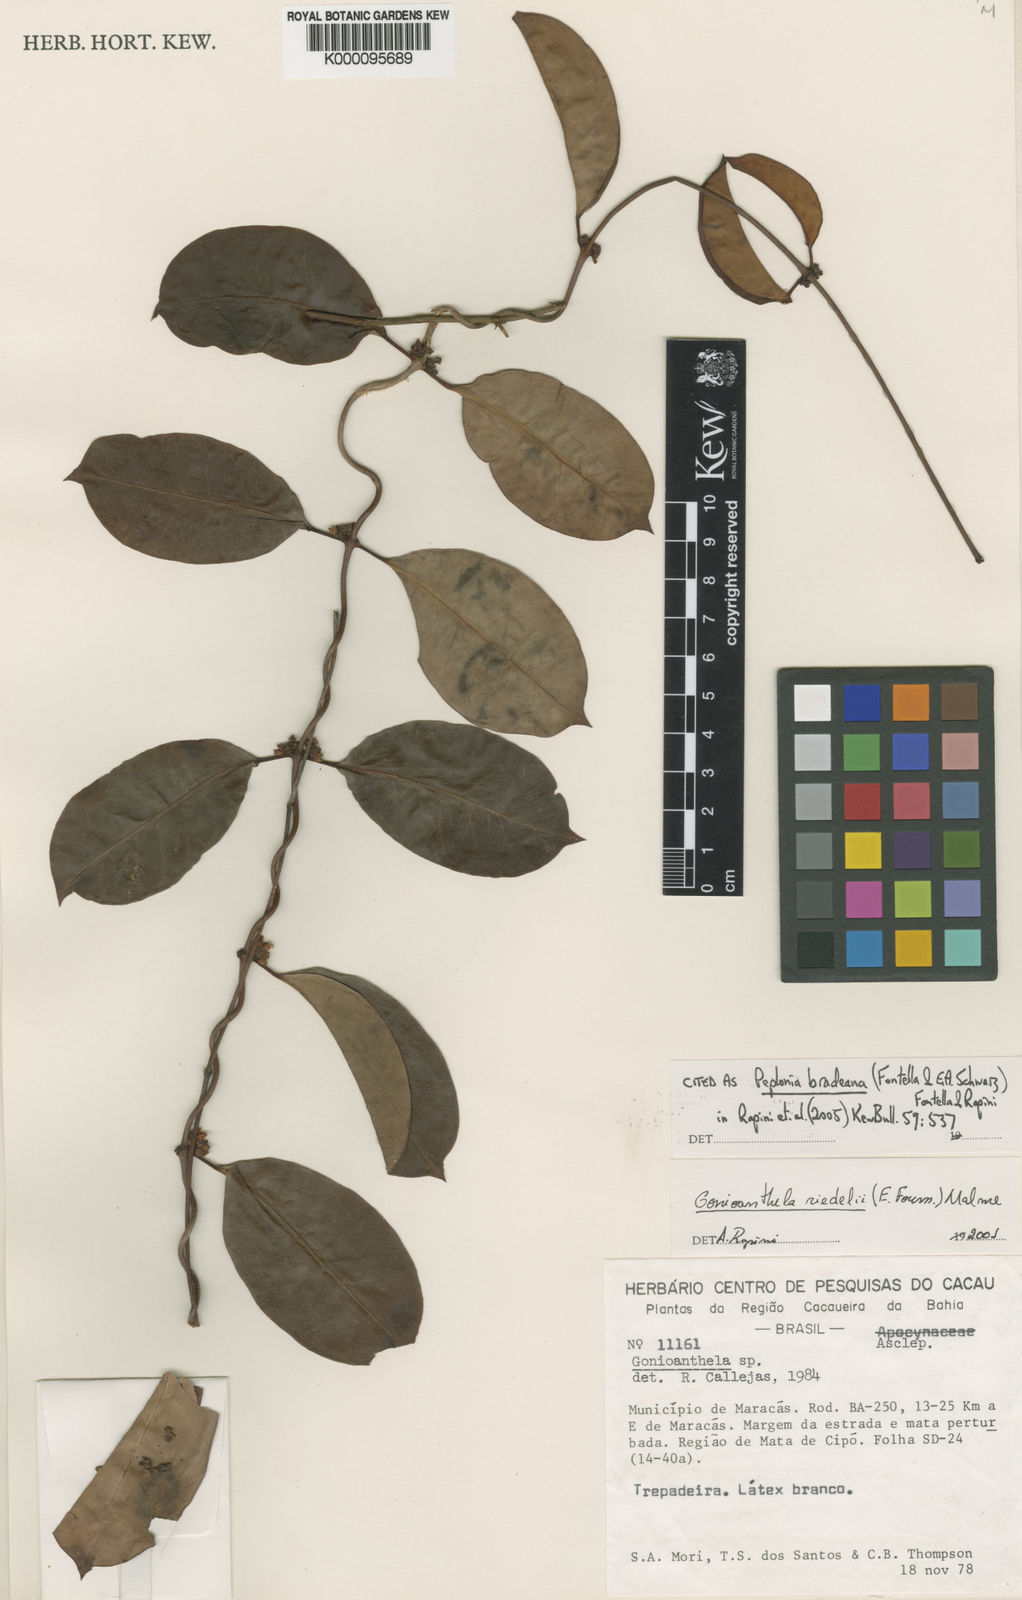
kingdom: Plantae
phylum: Tracheophyta
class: Magnoliopsida
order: Gentianales
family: Apocynaceae
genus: Peplonia
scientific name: Peplonia bradeana
